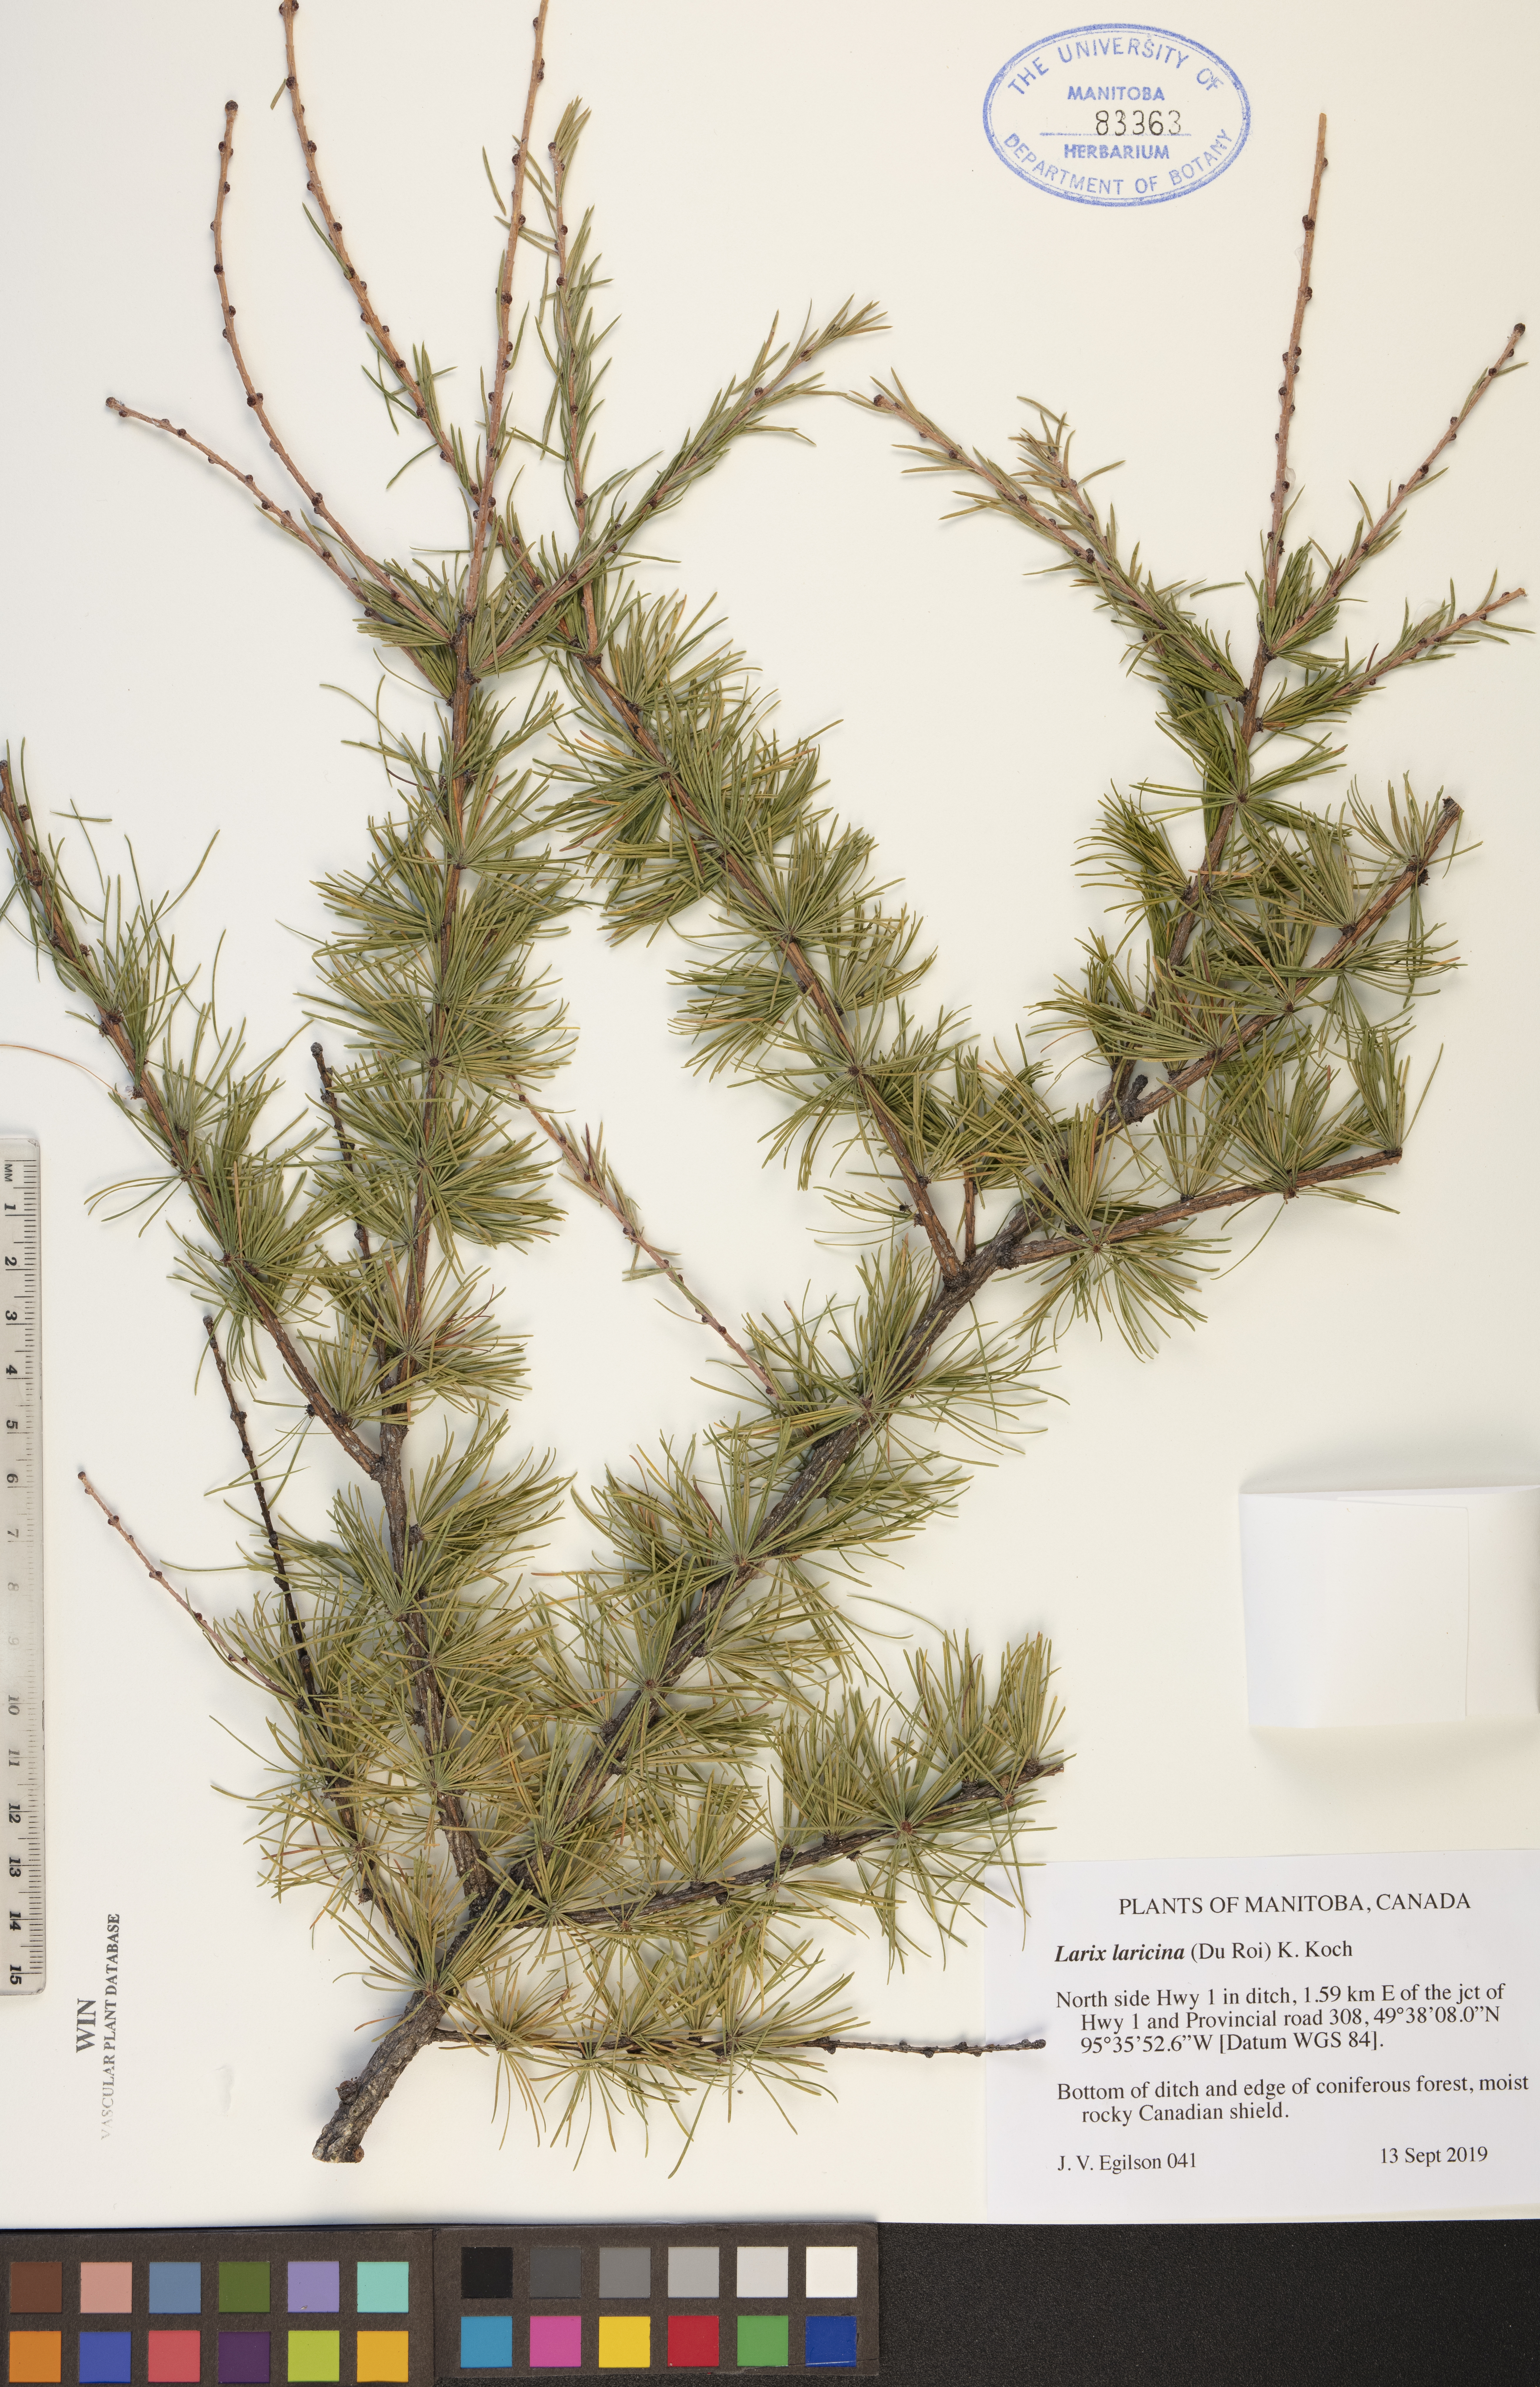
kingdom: Plantae
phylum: Tracheophyta
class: Pinopsida
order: Pinales
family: Pinaceae
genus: Larix
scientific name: Larix laricina
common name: American larch
